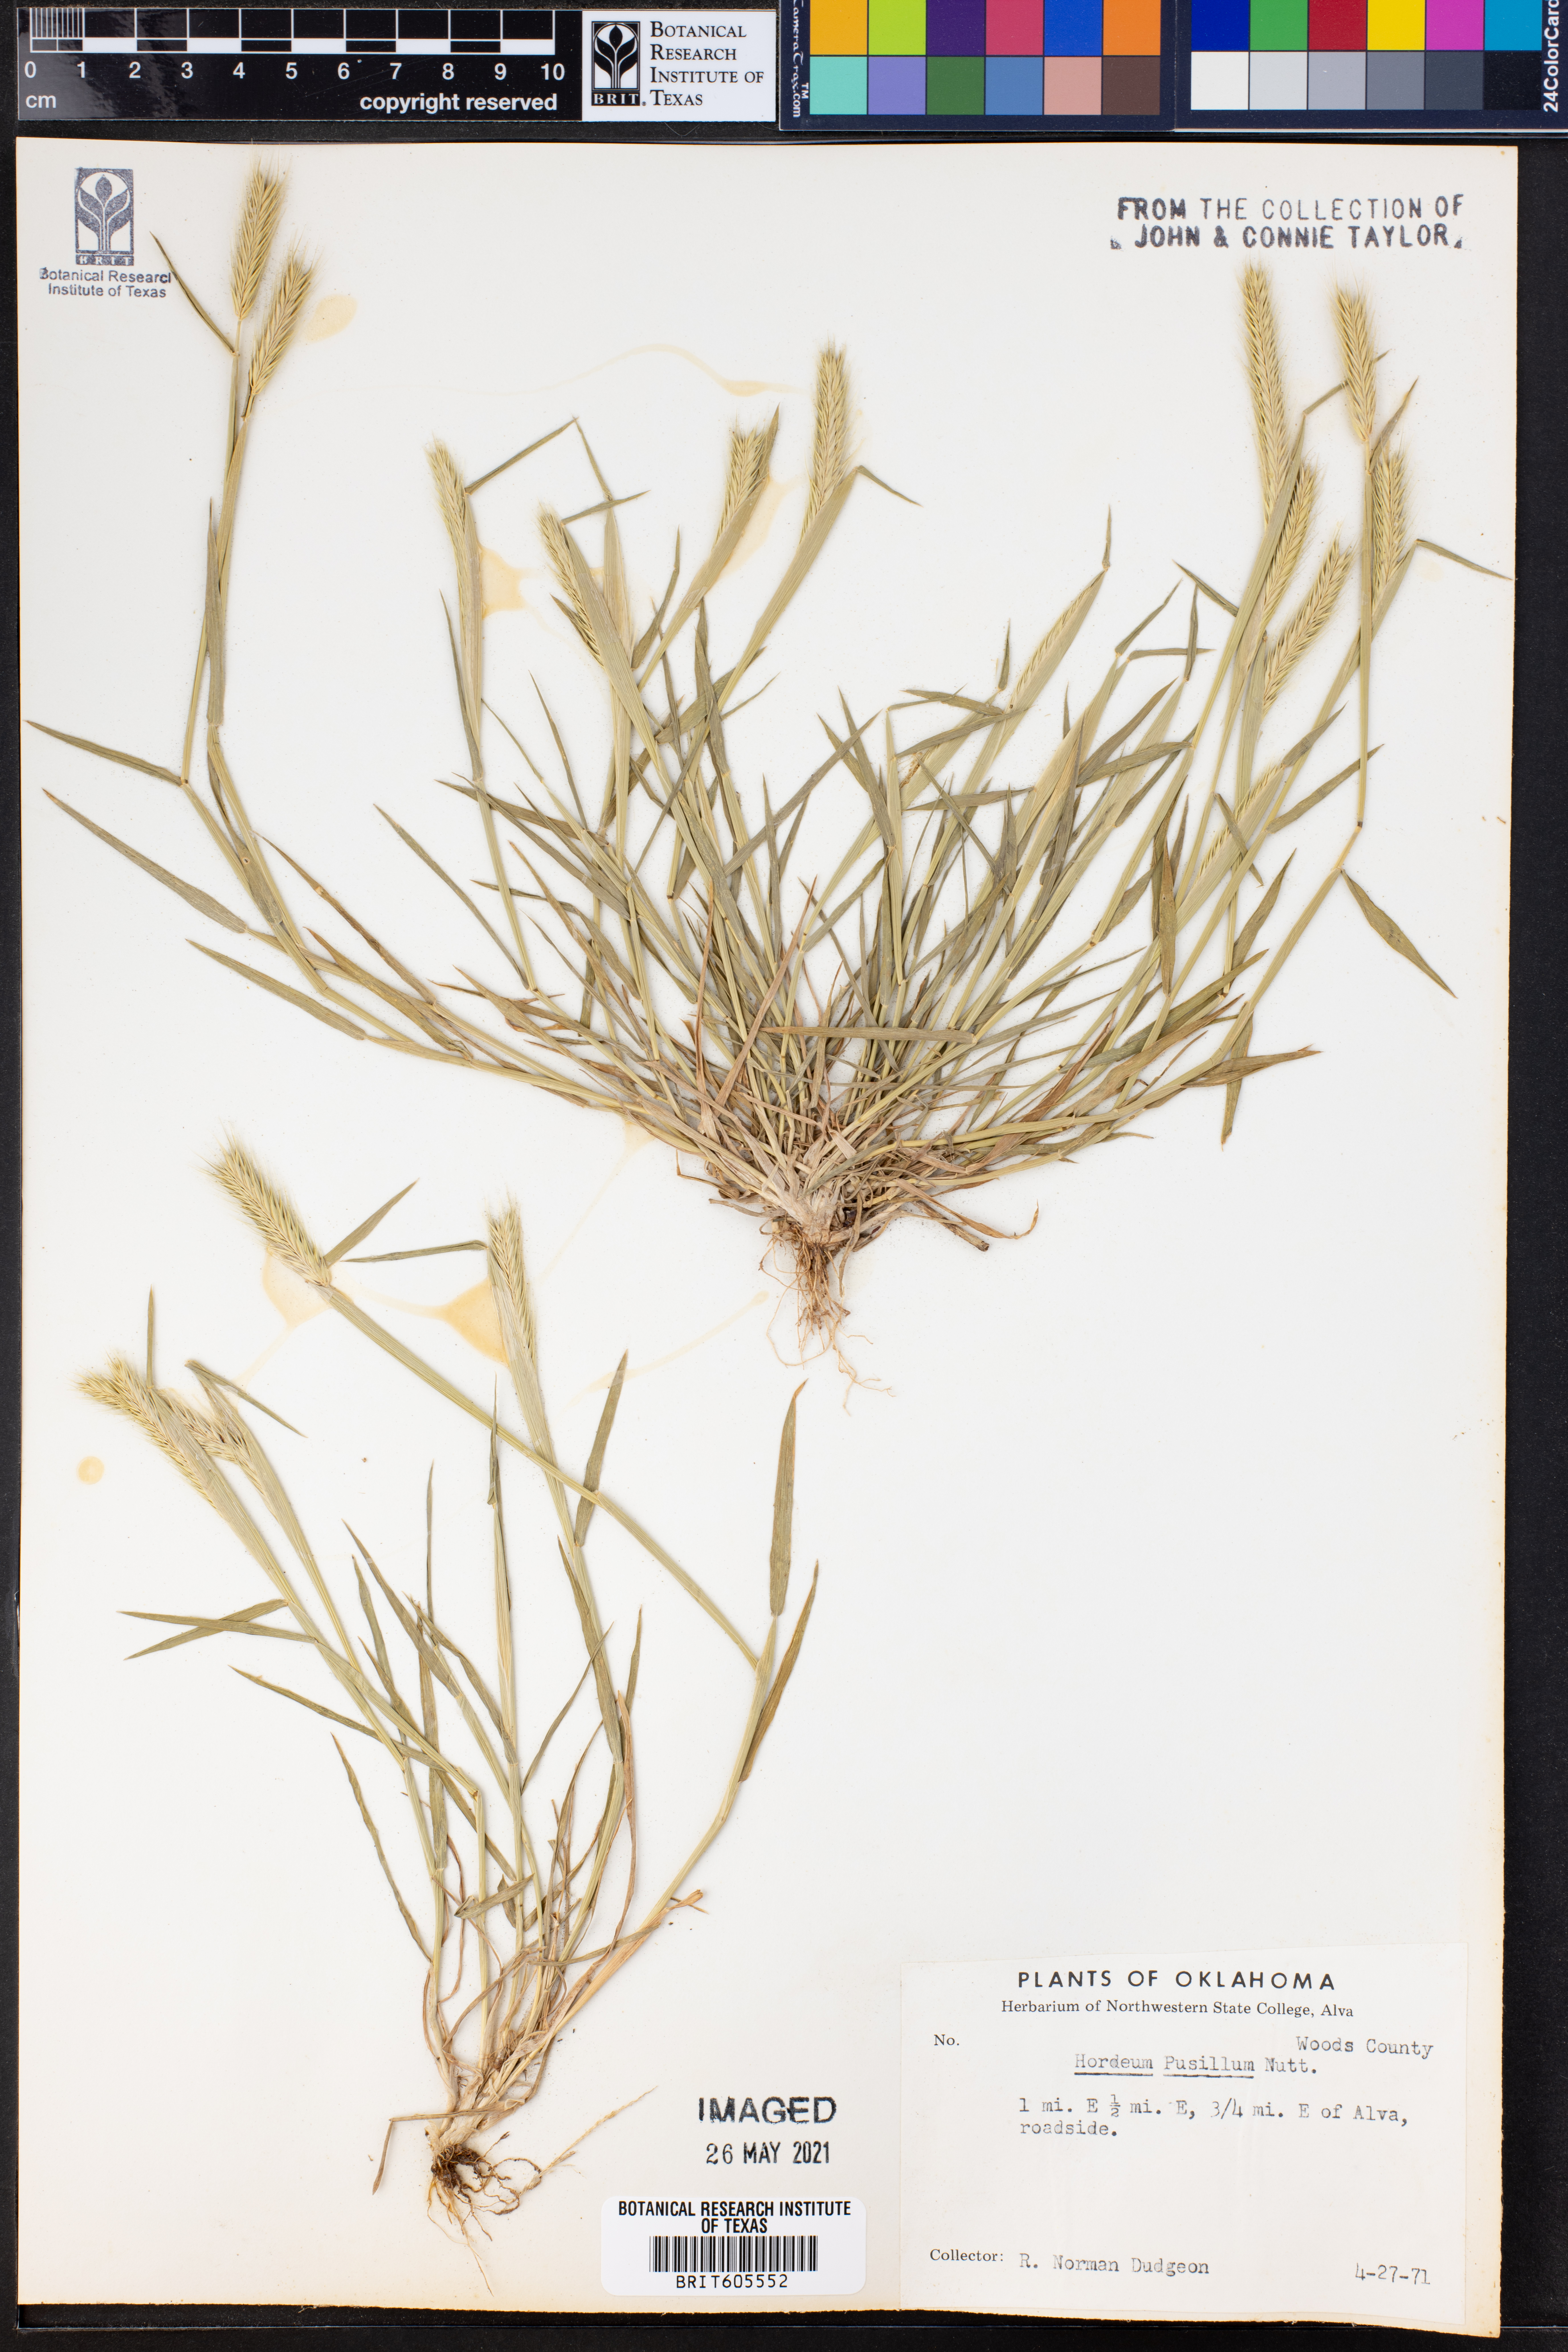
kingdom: Plantae
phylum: Tracheophyta
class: Liliopsida
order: Poales
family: Poaceae
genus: Hordeum
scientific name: Hordeum pusillum
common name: Little barley
